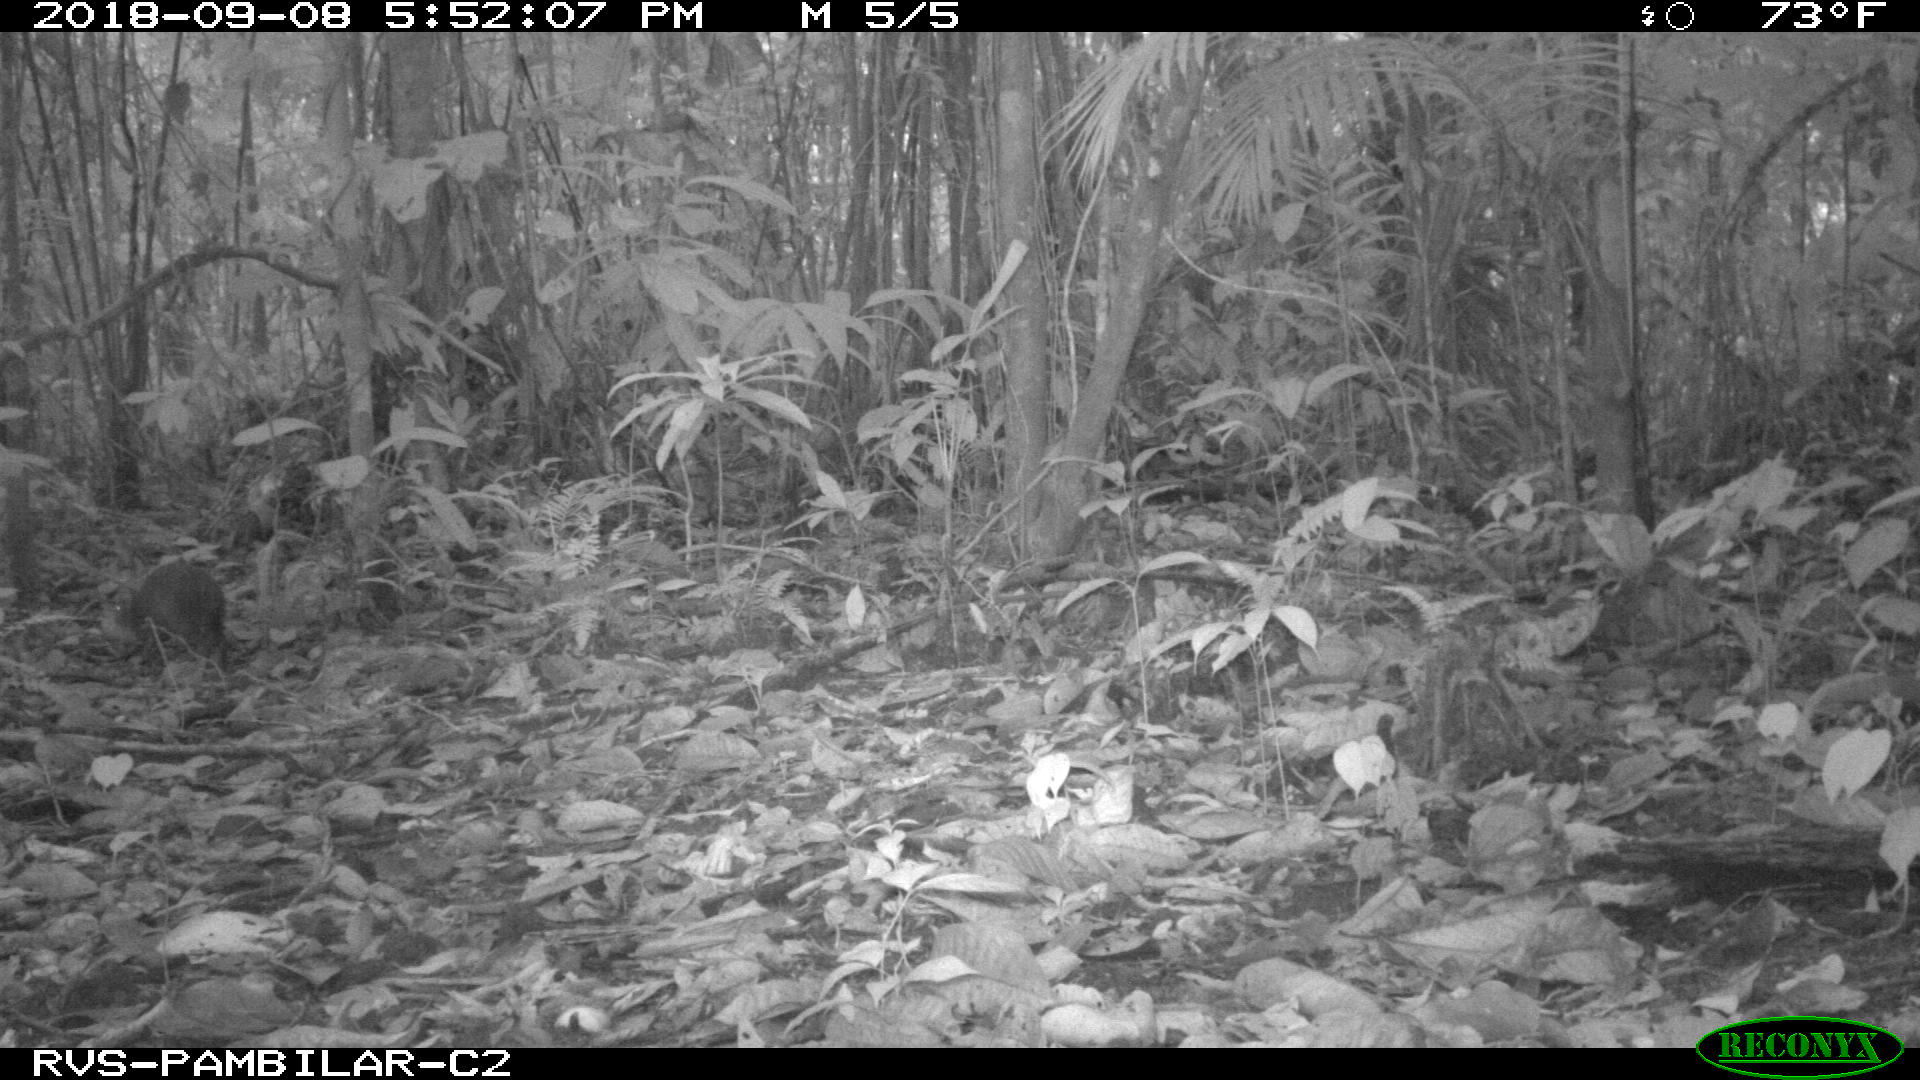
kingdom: Animalia
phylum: Chordata
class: Mammalia
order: Rodentia
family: Dasyproctidae
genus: Dasyprocta
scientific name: Dasyprocta punctata
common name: Central american agouti
